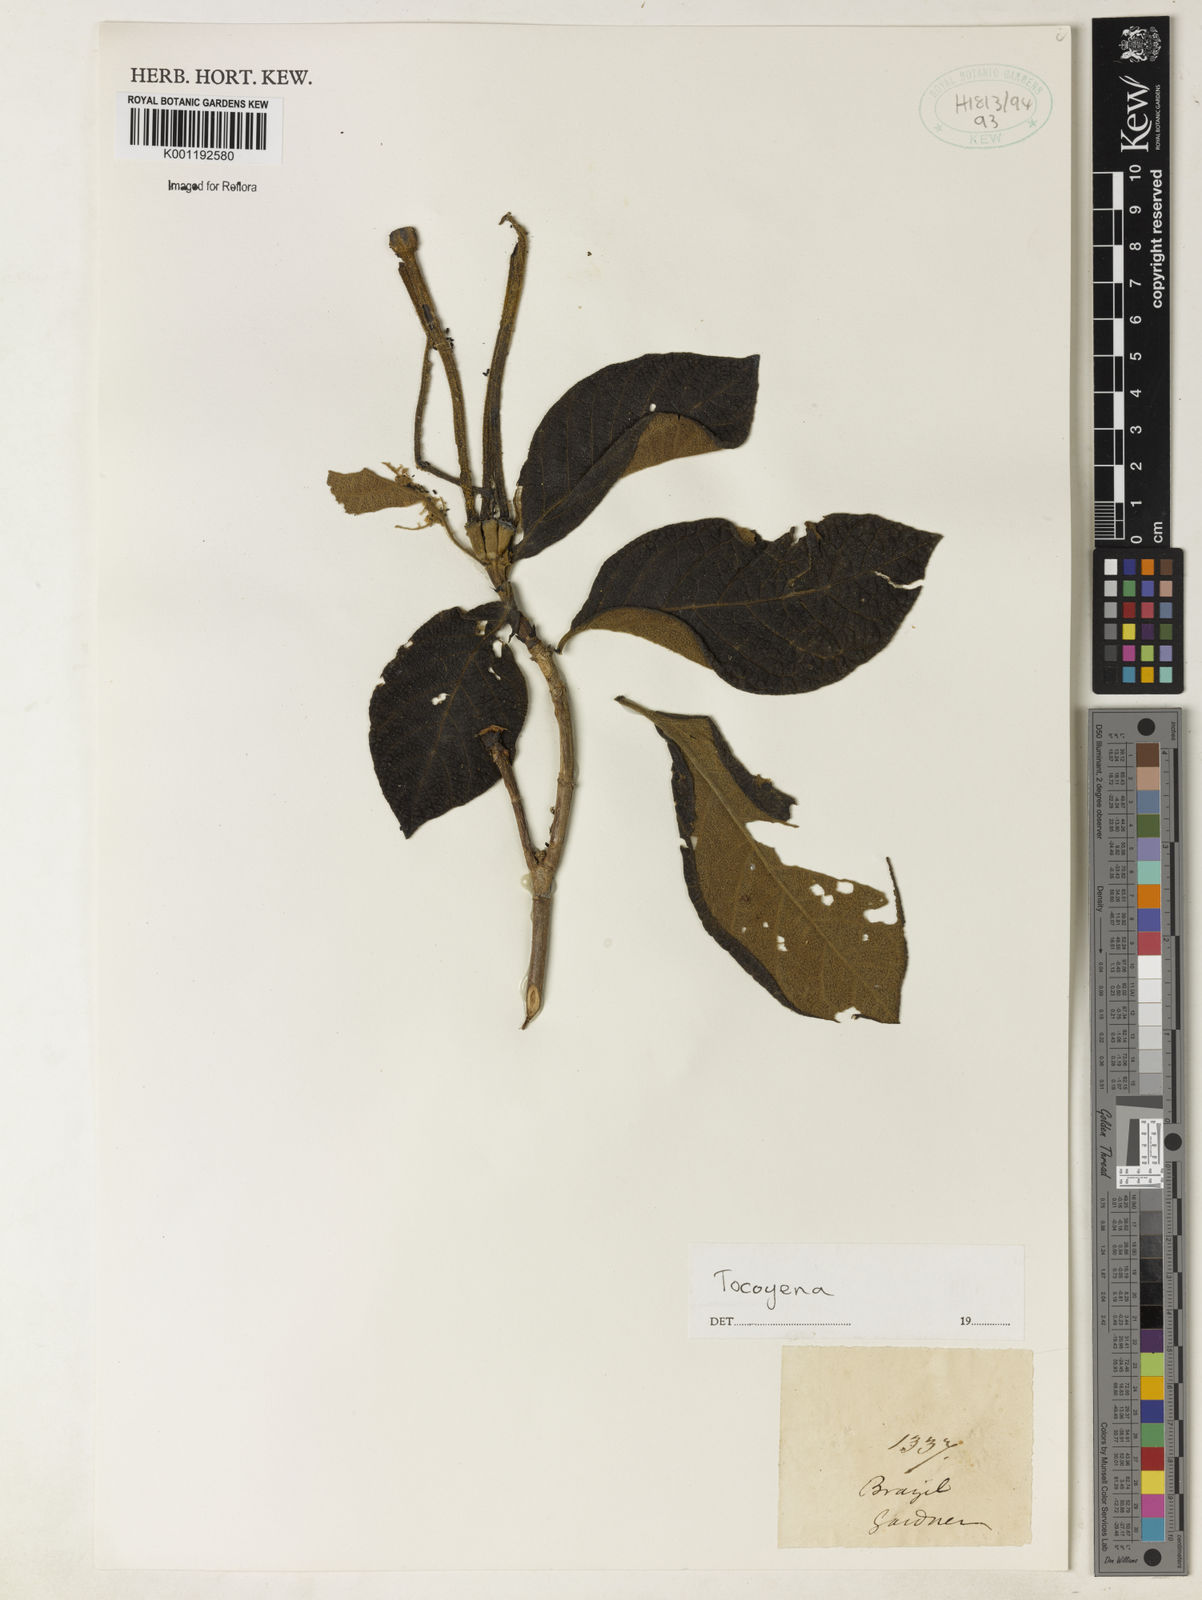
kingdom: Plantae
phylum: Tracheophyta
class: Magnoliopsida
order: Gentianales
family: Rubiaceae
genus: Tocoyena
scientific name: Tocoyena
